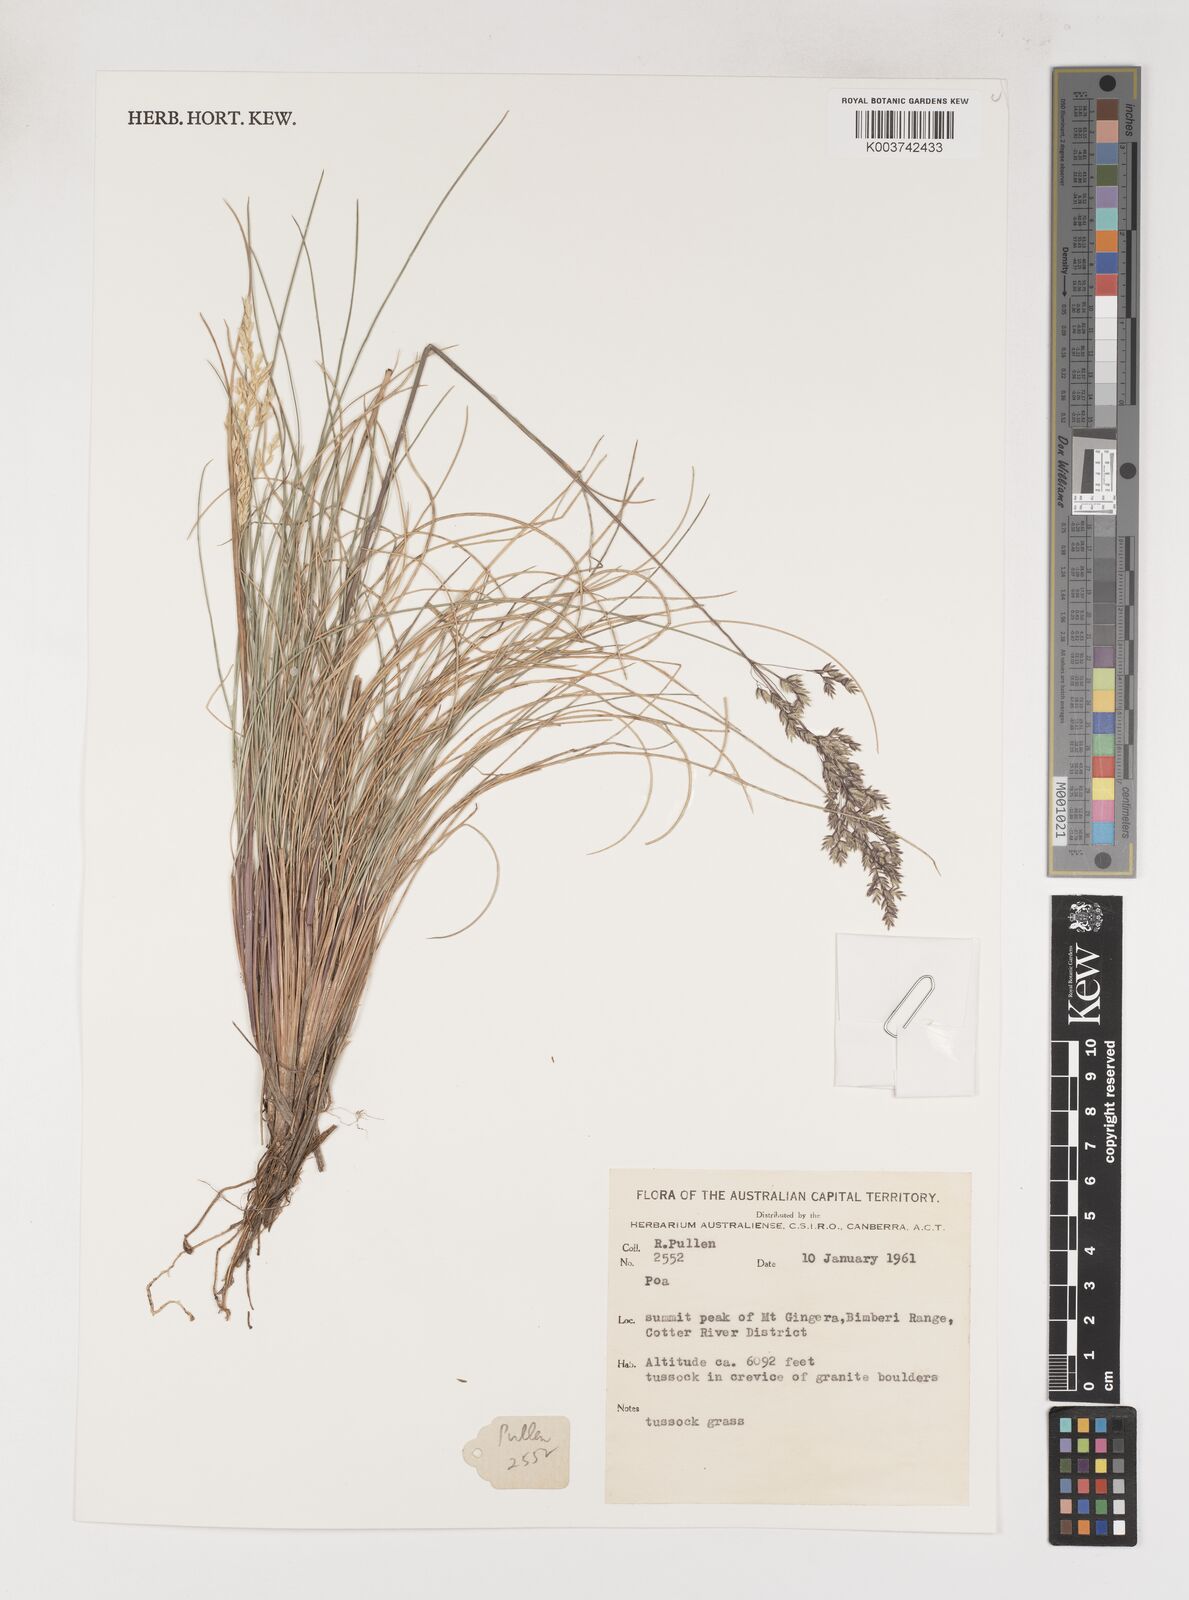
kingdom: Plantae
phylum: Tracheophyta
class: Liliopsida
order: Poales
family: Poaceae
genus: Poa
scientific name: Poa
